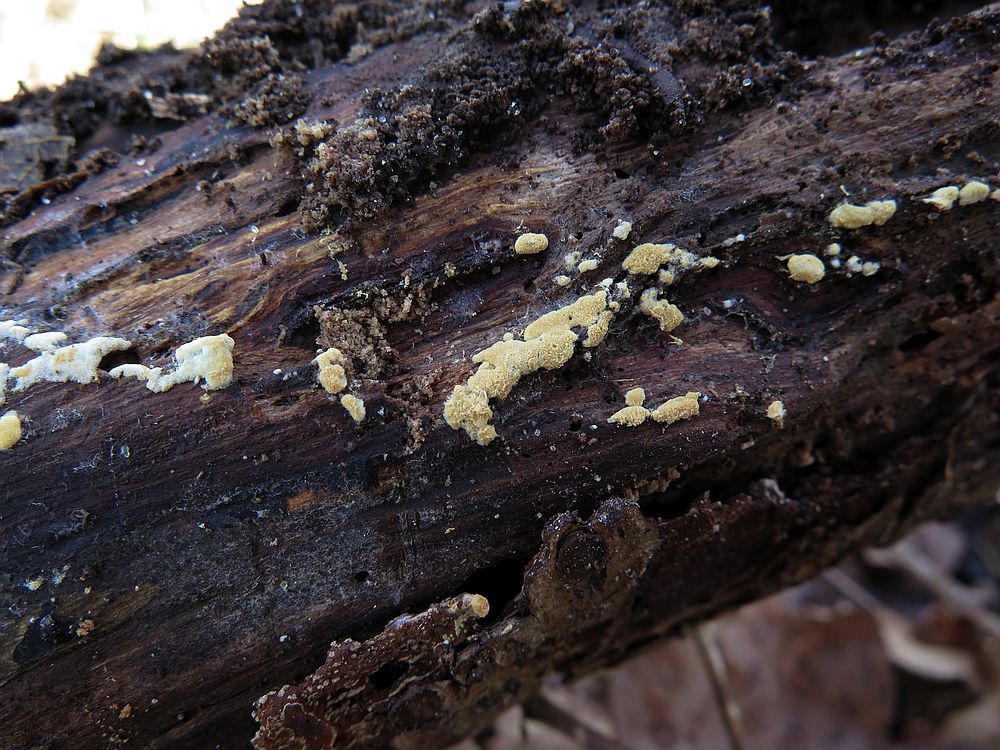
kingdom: Fungi
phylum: Basidiomycota
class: Agaricomycetes
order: Cantharellales
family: Botryobasidiaceae
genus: Botryobasidium
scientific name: Botryobasidium aureum
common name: gylden spindhinde
